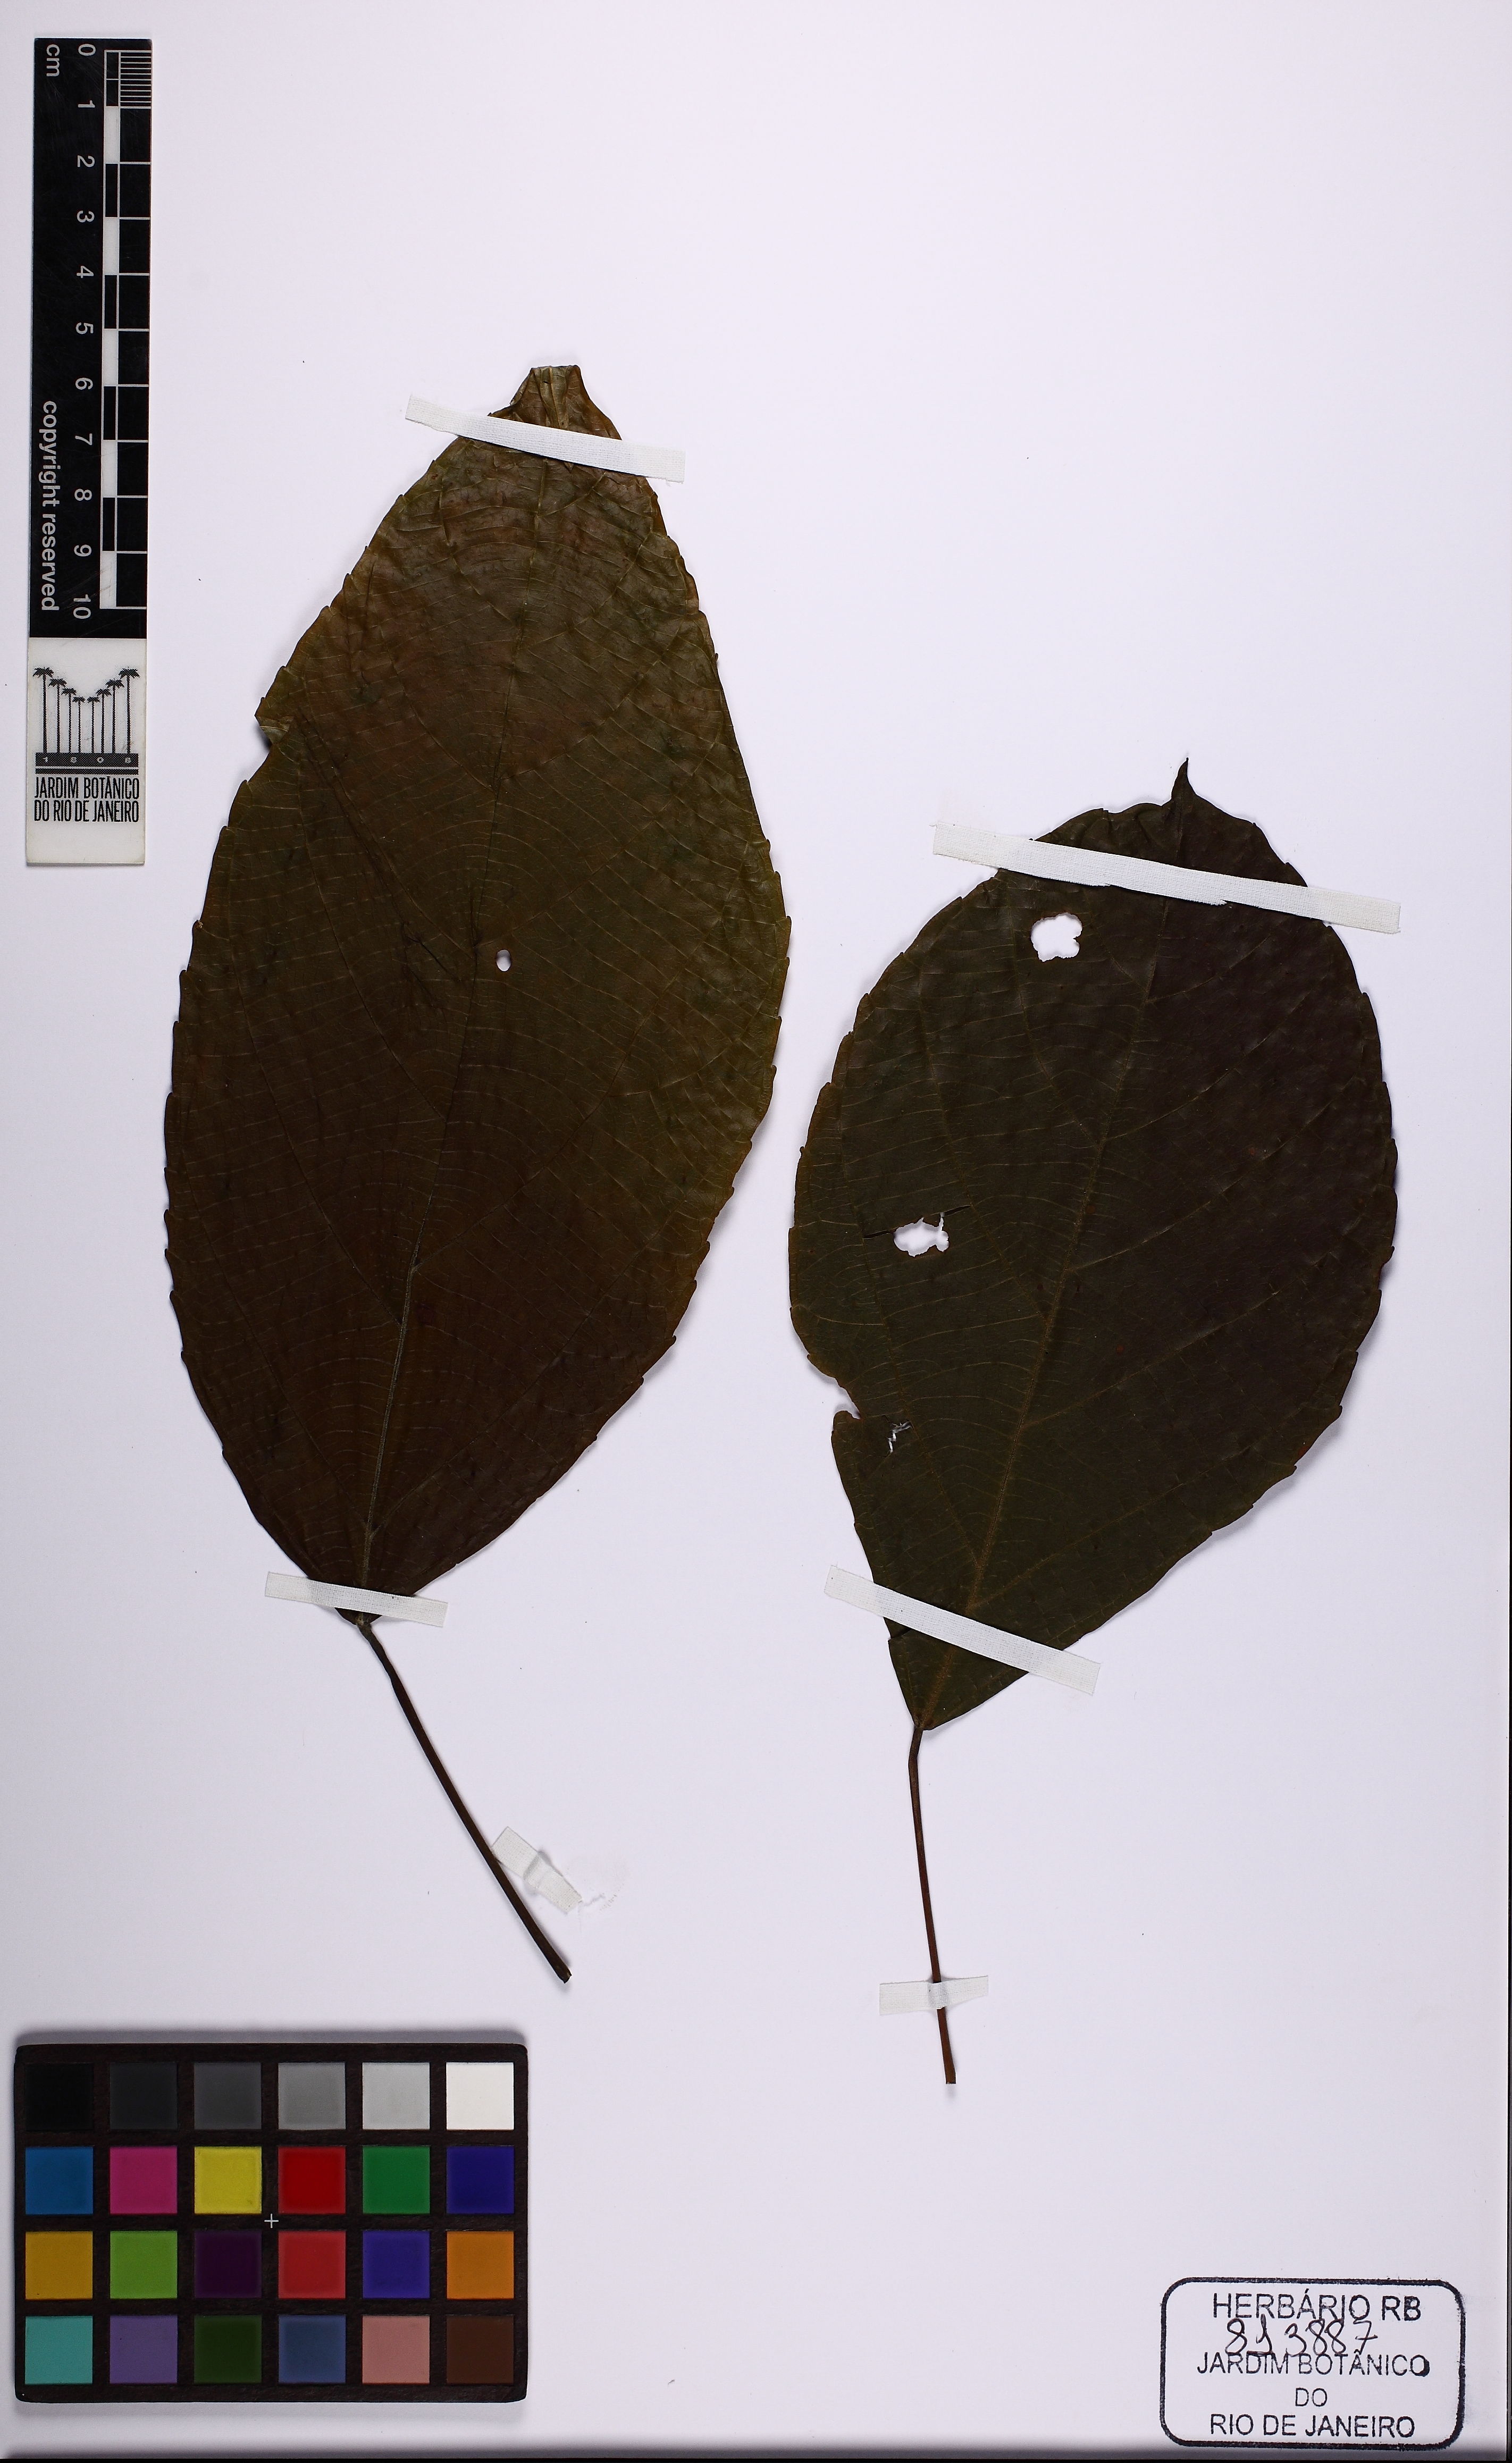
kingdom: Plantae
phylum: Tracheophyta
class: Magnoliopsida
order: Malpighiales
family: Euphorbiaceae
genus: Aparisthmium
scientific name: Aparisthmium cordatum
